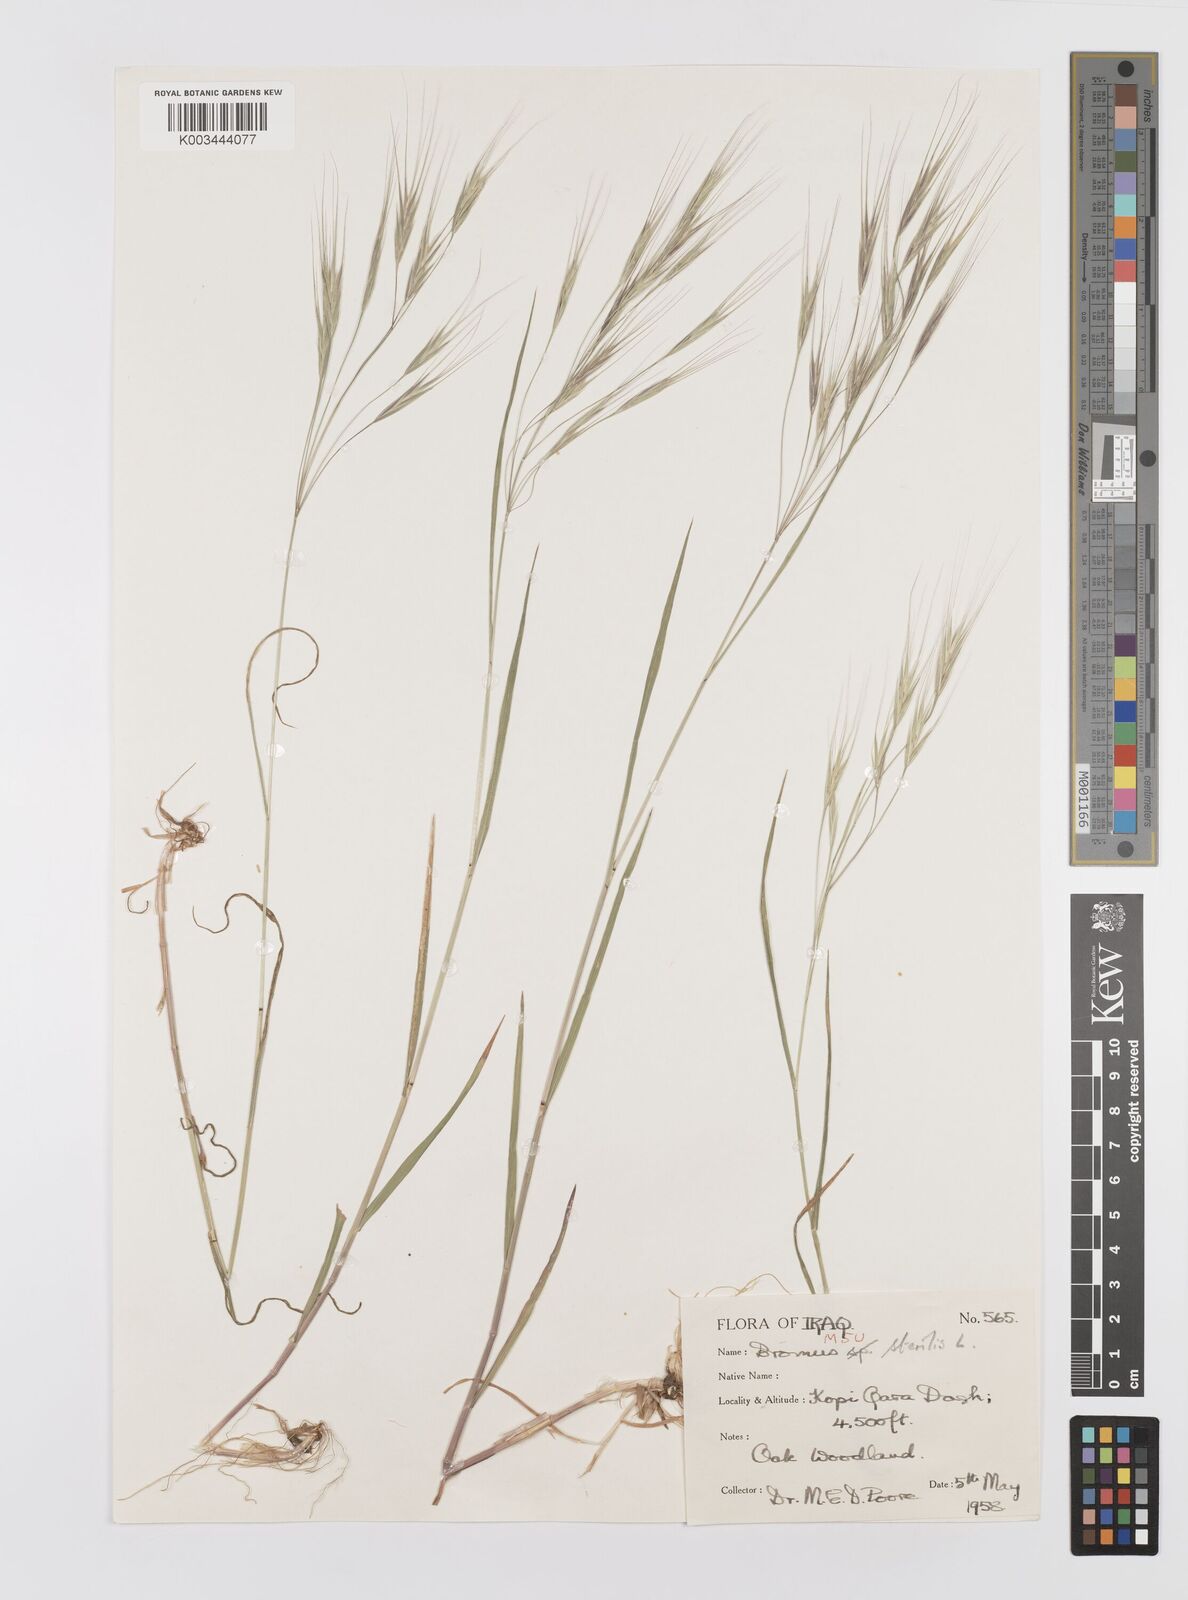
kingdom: Plantae
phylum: Tracheophyta
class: Liliopsida
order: Poales
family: Poaceae
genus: Bromus
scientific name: Bromus sterilis
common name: Poverty brome
